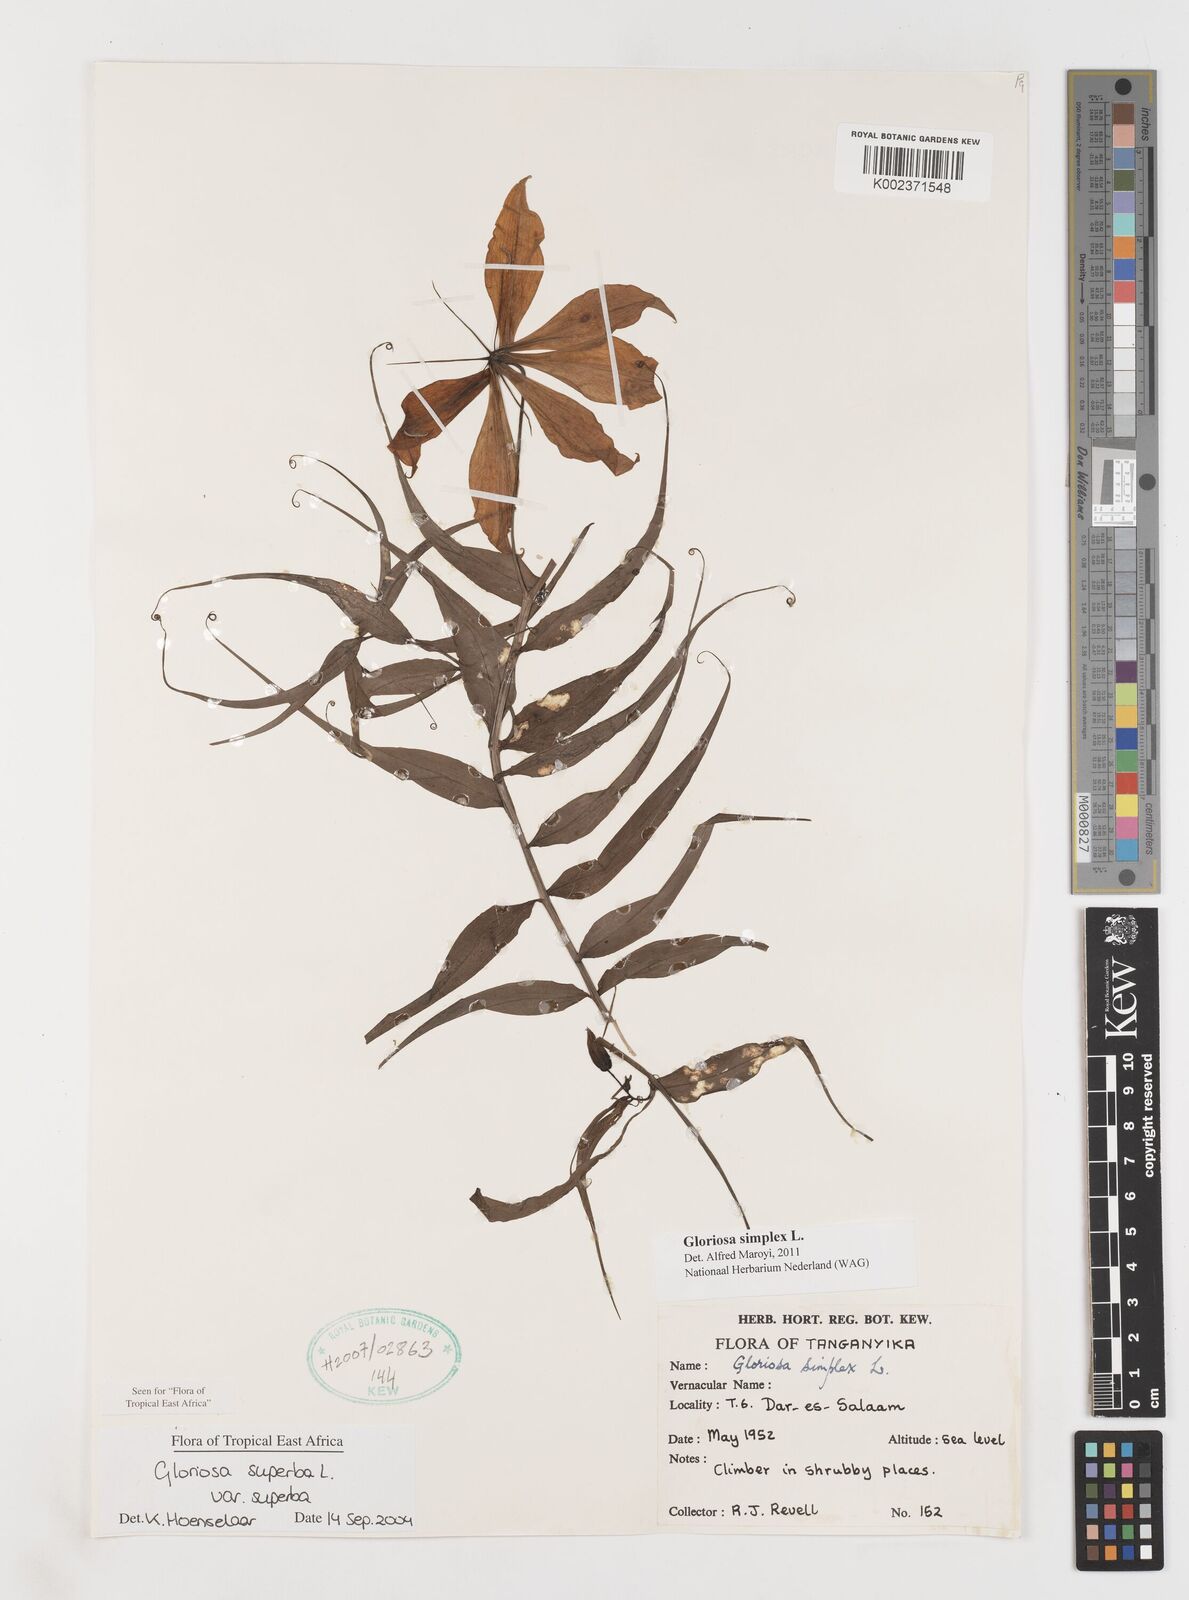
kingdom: Plantae
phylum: Tracheophyta
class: Liliopsida
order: Liliales
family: Colchicaceae
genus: Gloriosa
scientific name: Gloriosa simplex
